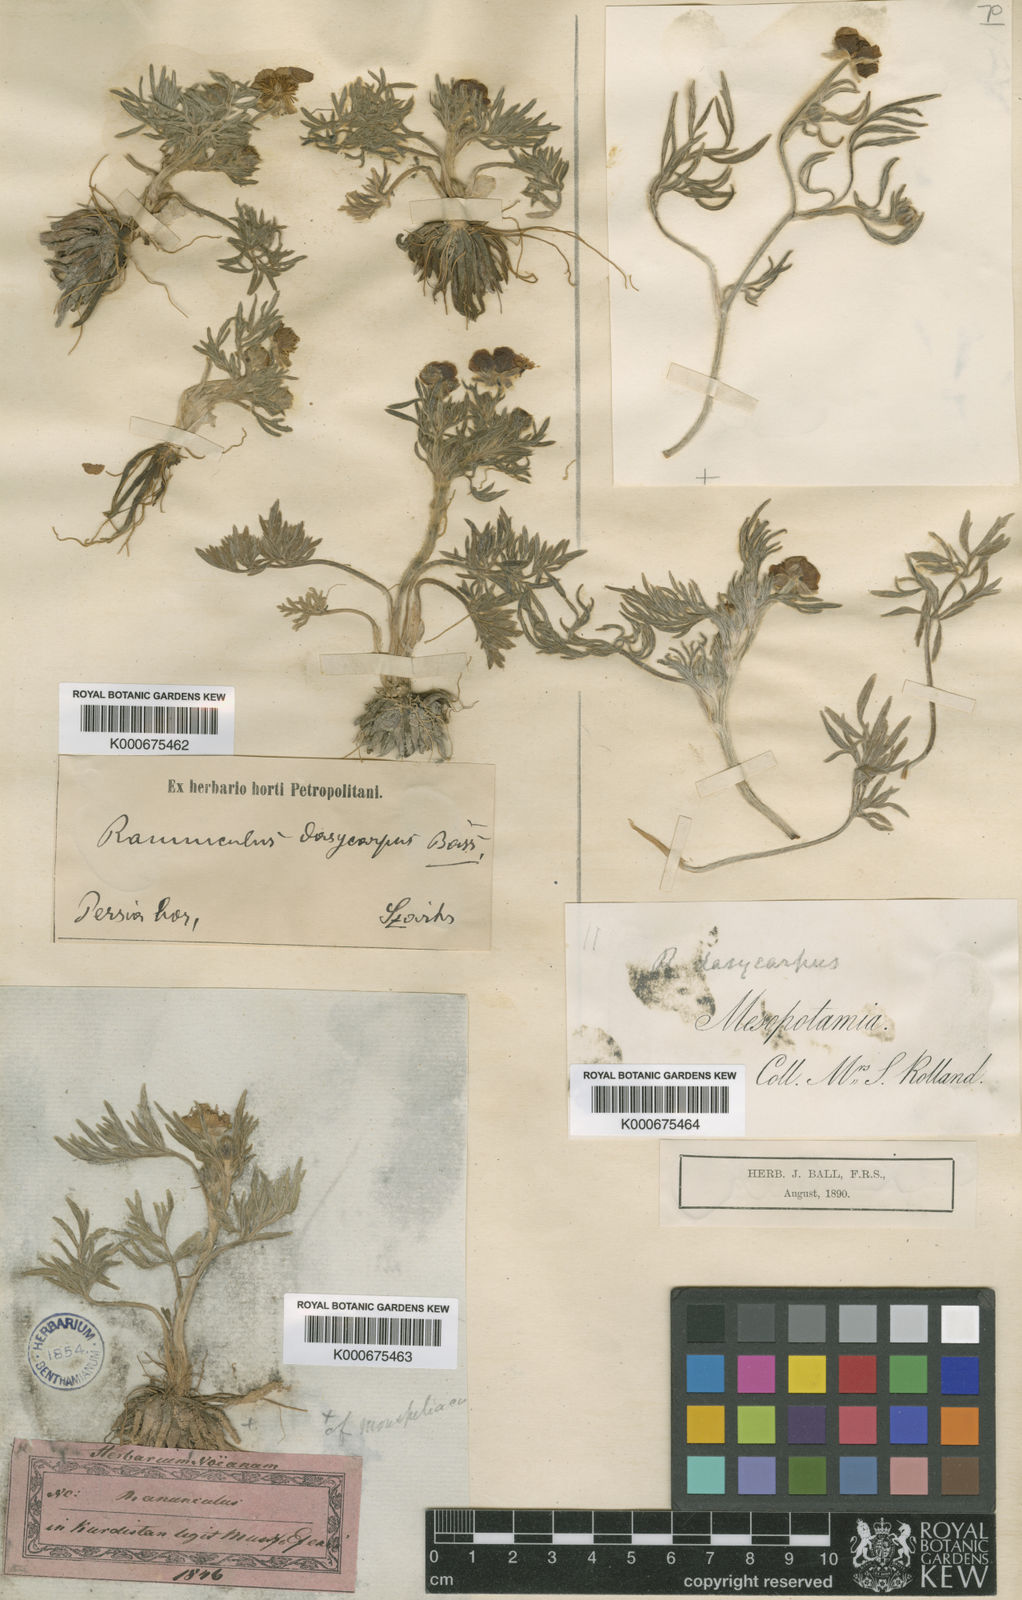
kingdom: Plantae
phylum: Tracheophyta
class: Magnoliopsida
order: Ranunculales
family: Ranunculaceae
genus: Ranunculus
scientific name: Ranunculus macrorrhynchus
